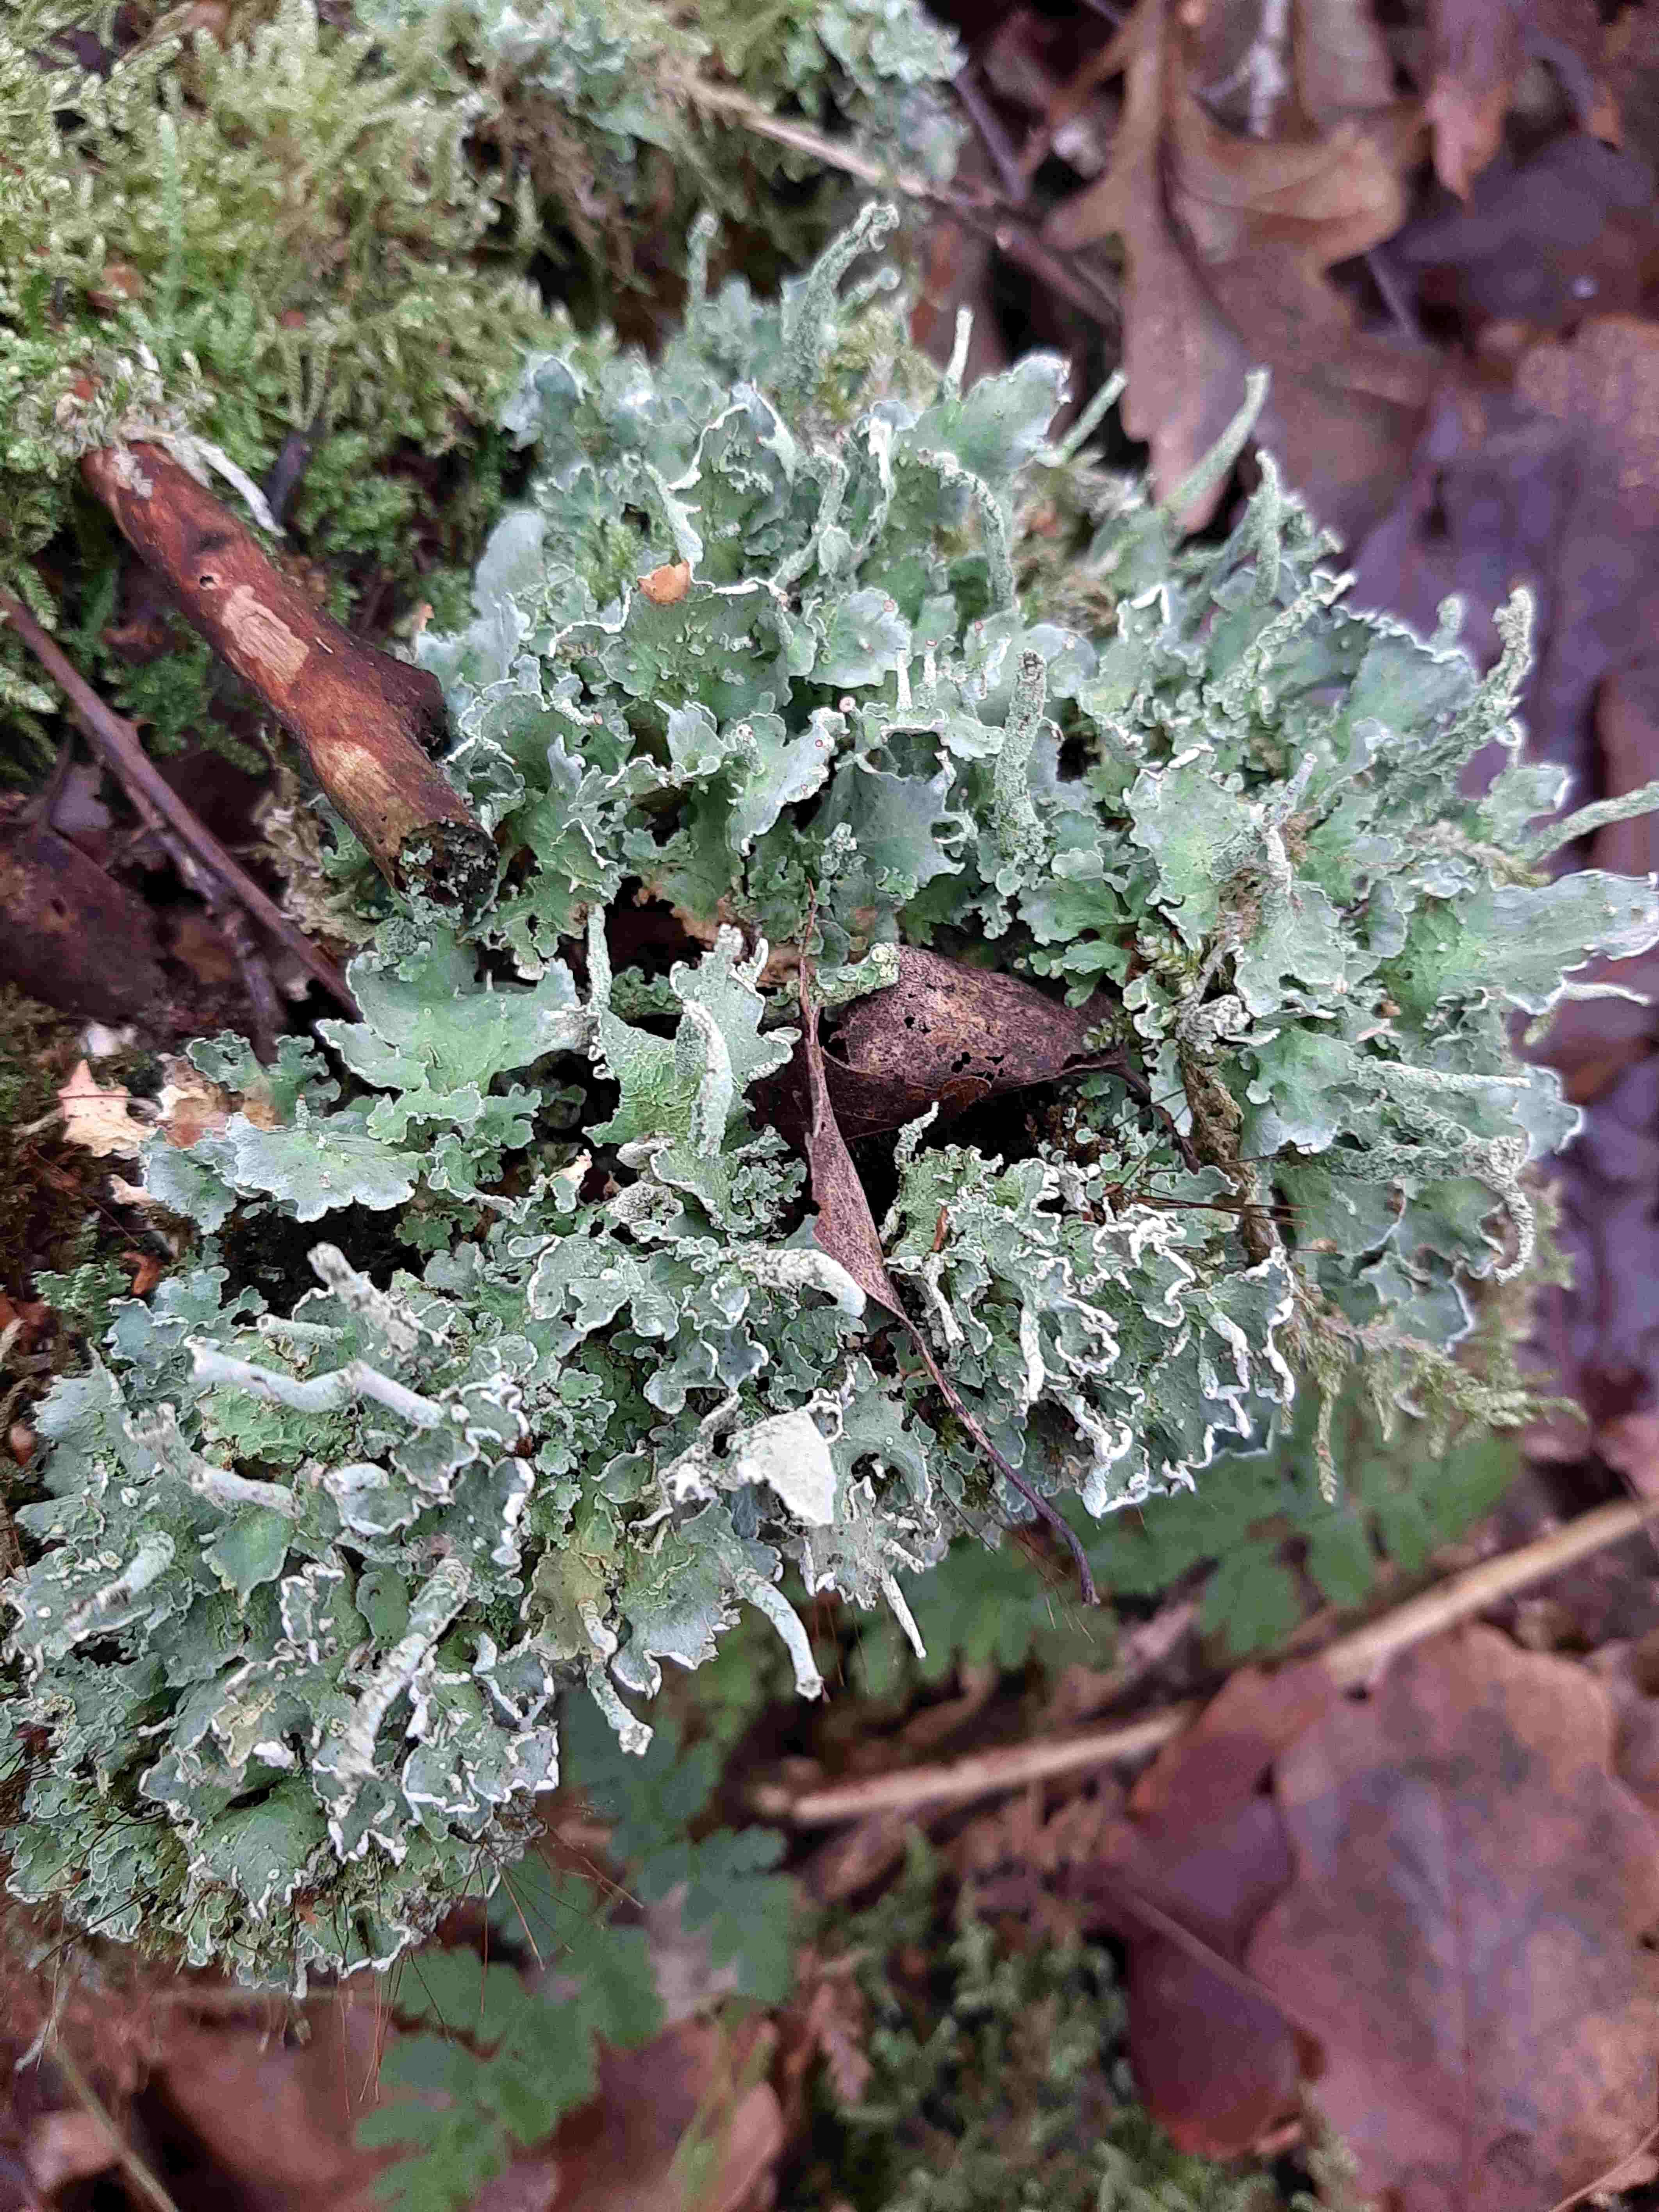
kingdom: Fungi
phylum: Ascomycota
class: Lecanoromycetes
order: Lecanorales
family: Cladoniaceae
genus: Cladonia
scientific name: Cladonia digitata
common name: finger-bægerlav
